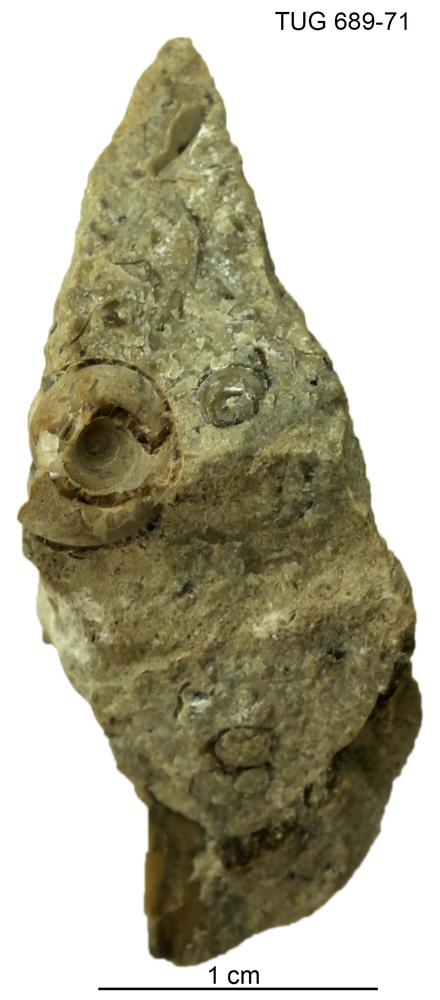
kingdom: Animalia
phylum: Mollusca
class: Gastropoda
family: Bucaniidae
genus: Megalomphala
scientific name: Megalomphala
